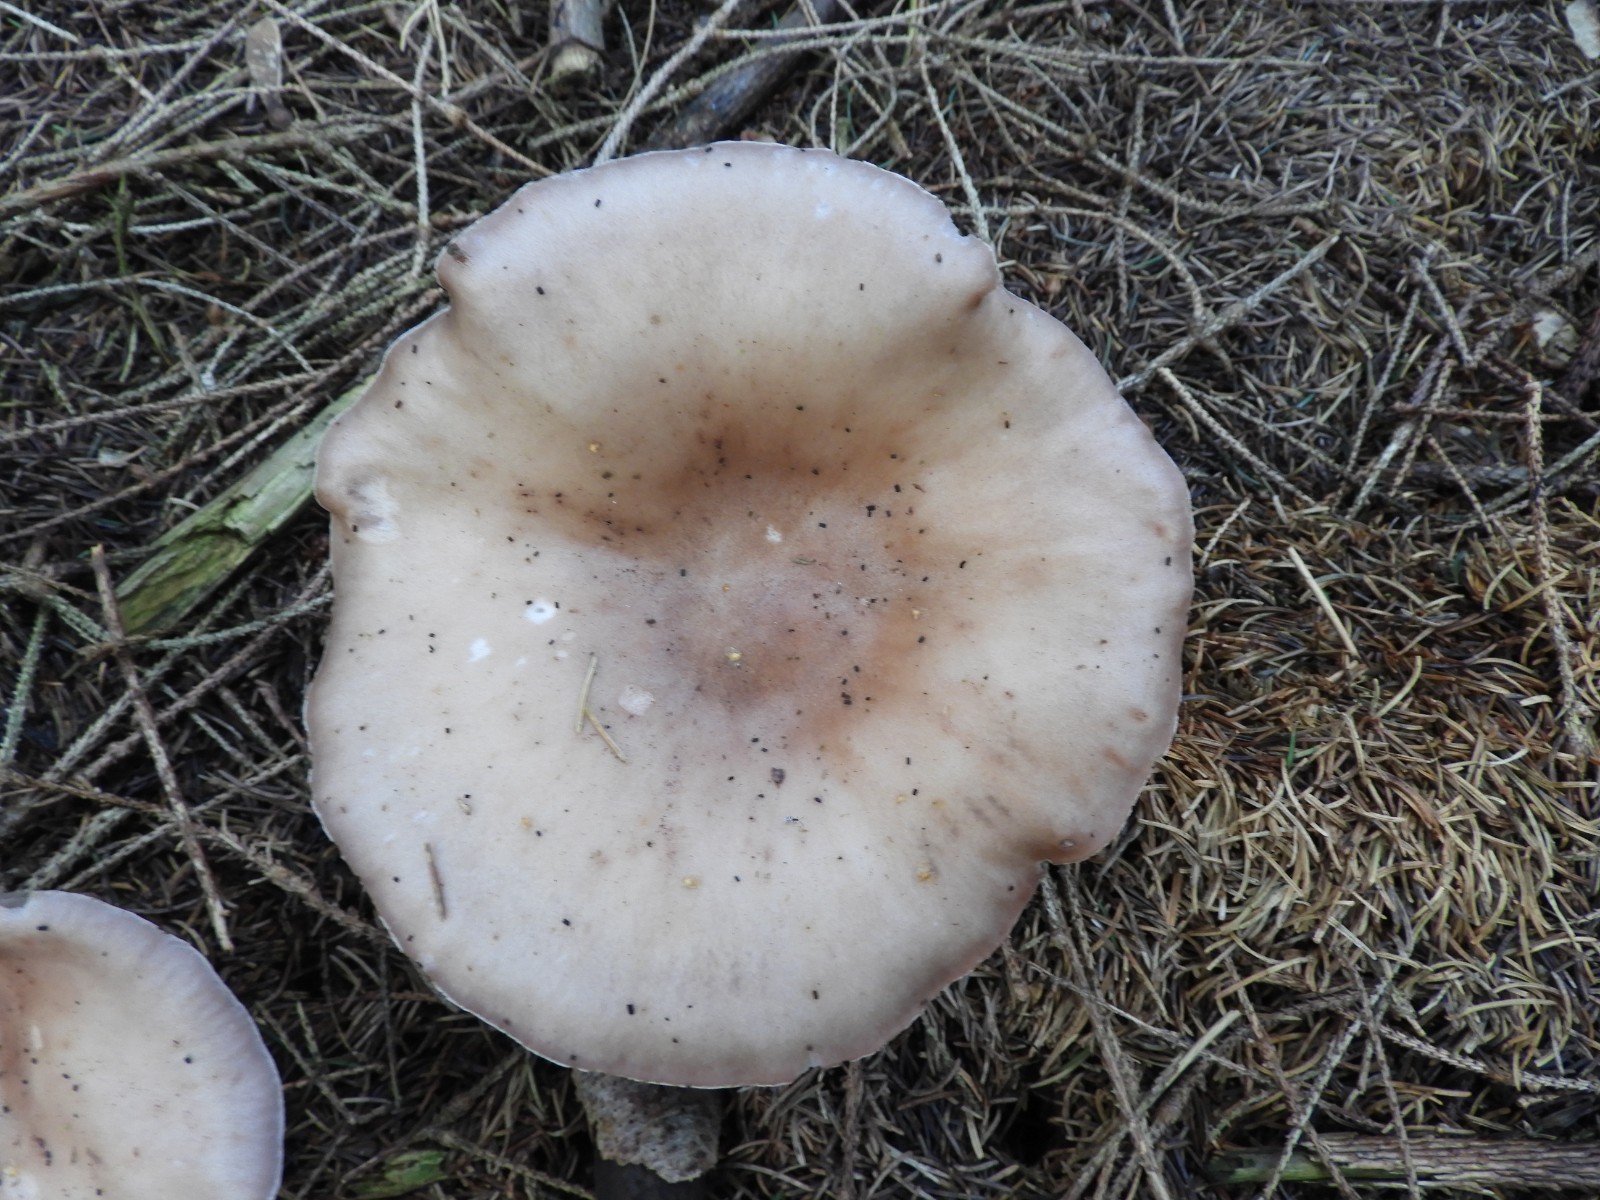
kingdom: Fungi
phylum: Basidiomycota
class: Agaricomycetes
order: Agaricales
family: Tricholomataceae
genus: Lepista
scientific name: Lepista personata
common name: bleg hekseringshat
